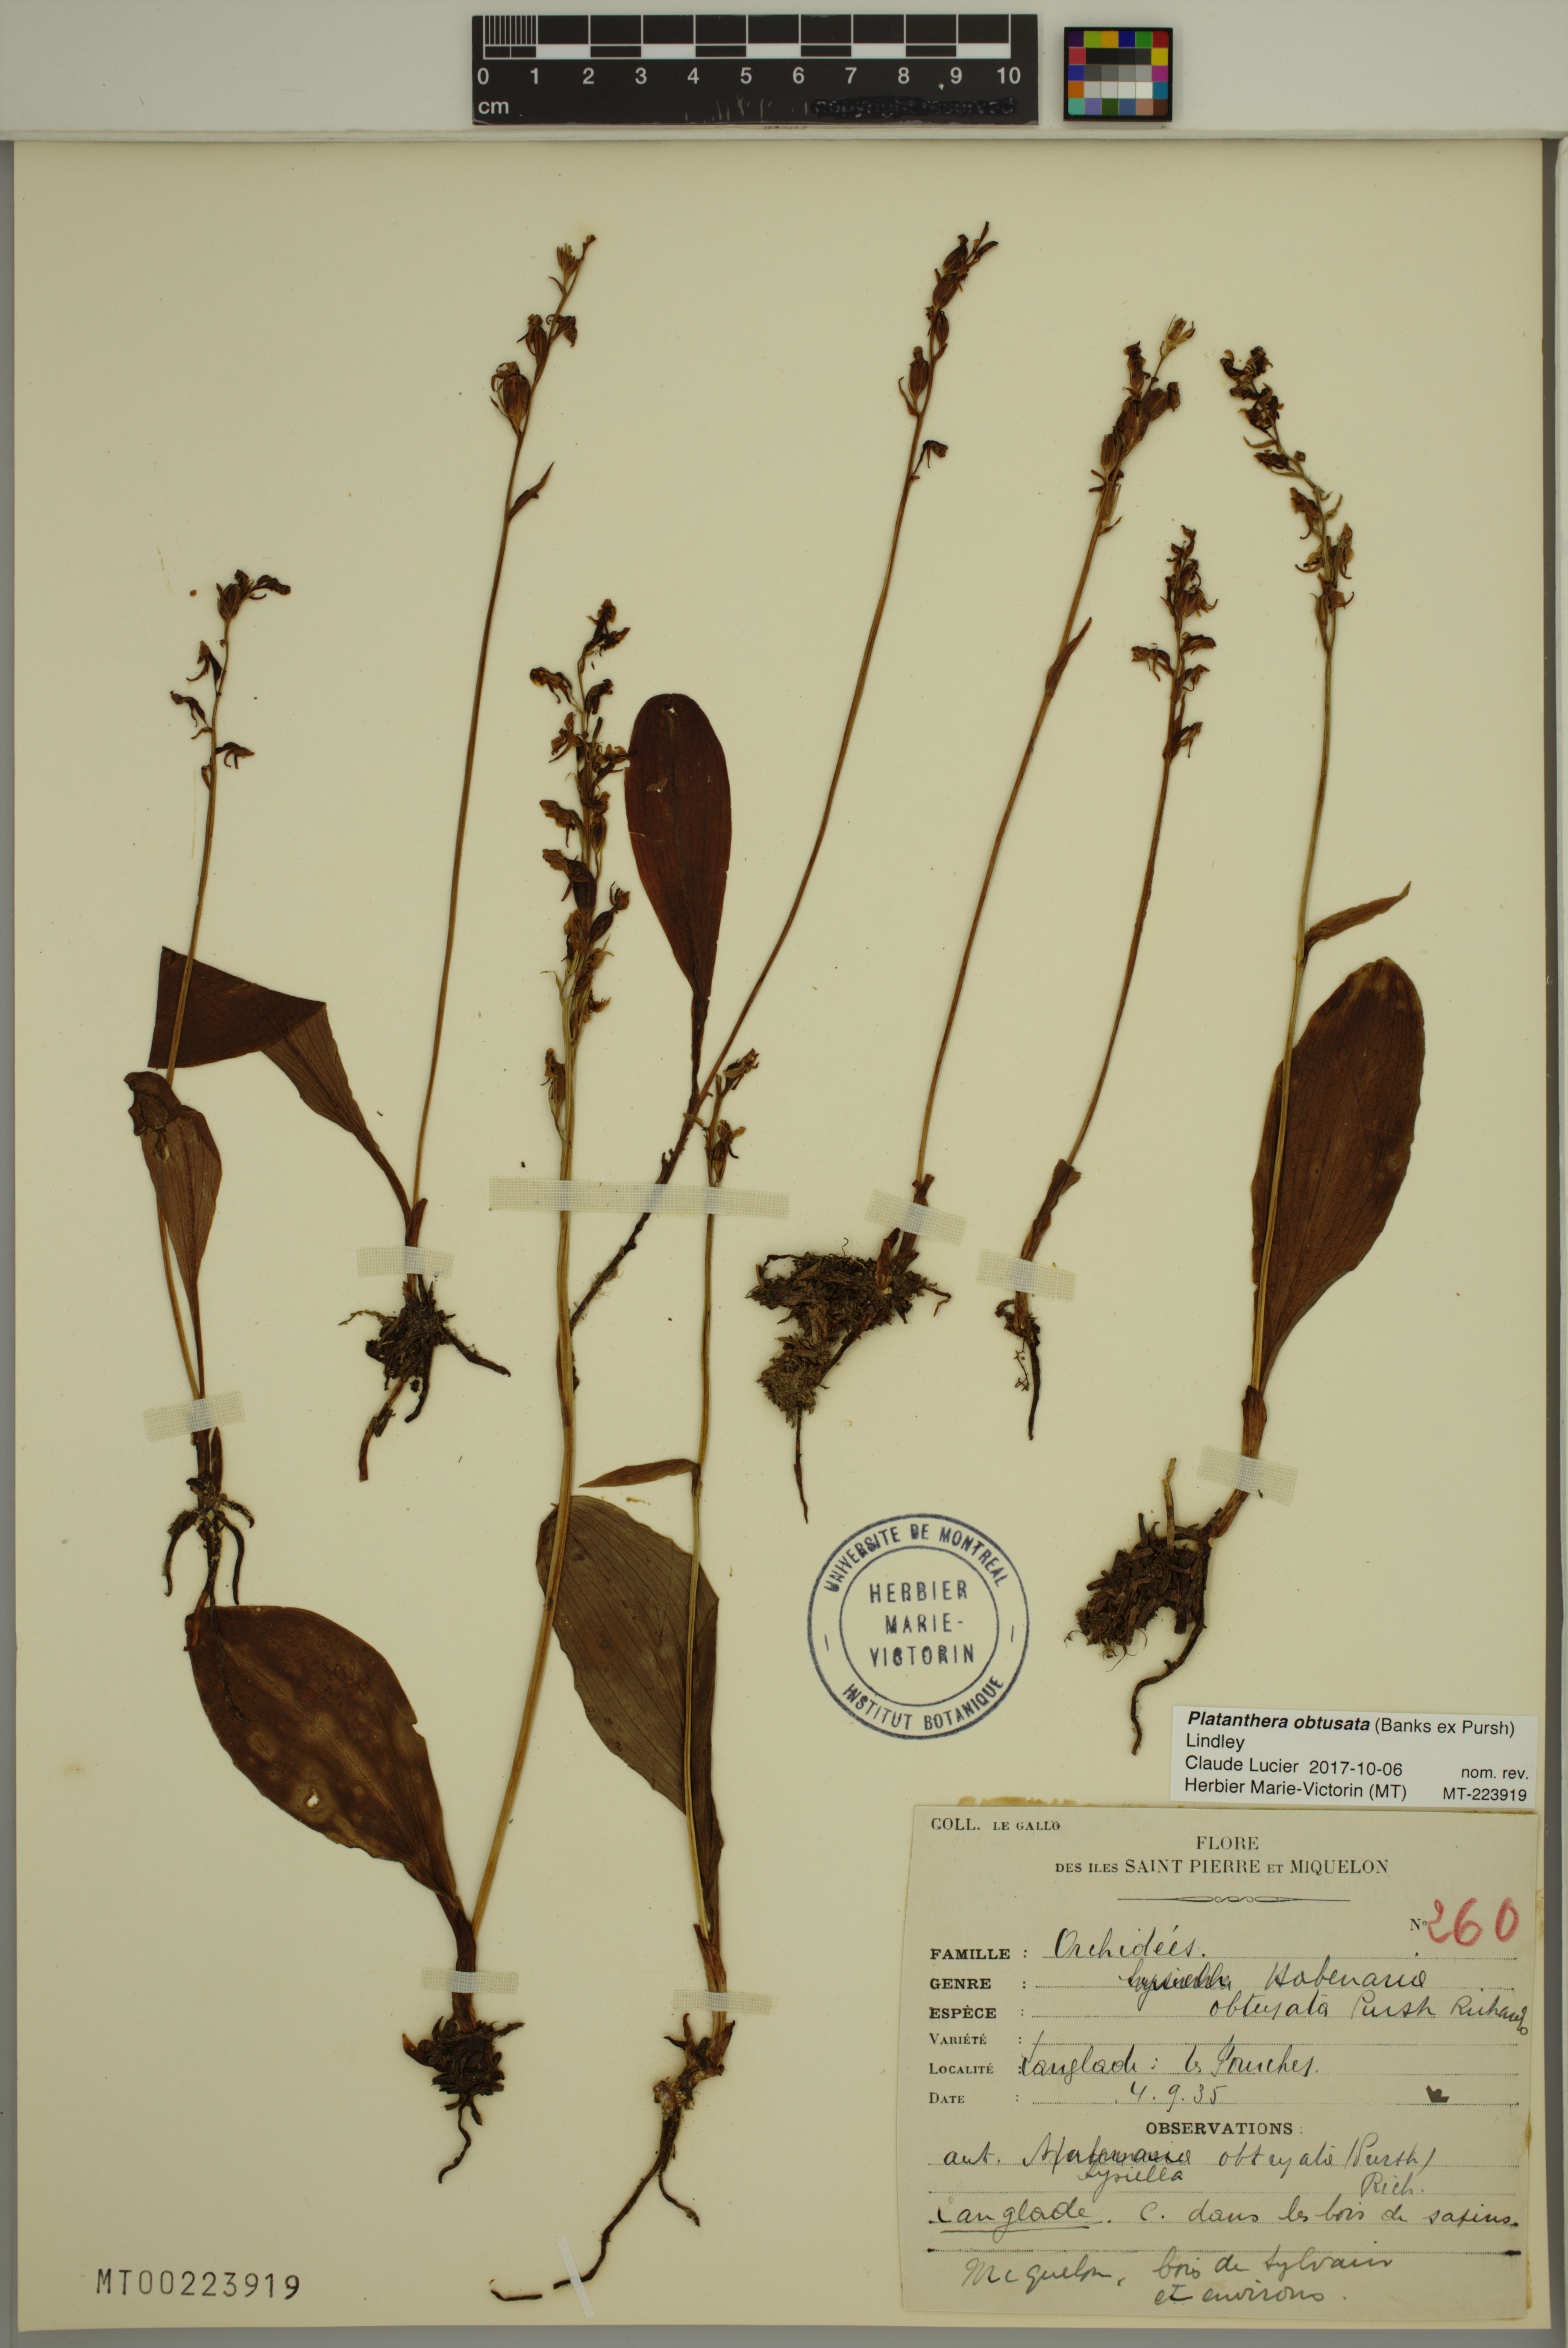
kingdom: Plantae
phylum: Tracheophyta
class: Liliopsida
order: Asparagales
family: Orchidaceae
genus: Platanthera
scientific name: Platanthera obtusata
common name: Blunt bog orchid
